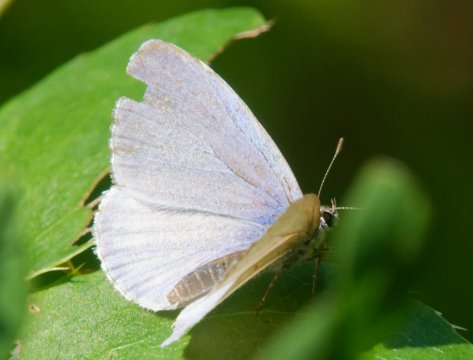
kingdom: Animalia
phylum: Arthropoda
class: Insecta
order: Lepidoptera
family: Lycaenidae
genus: Celastrina
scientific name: Celastrina
